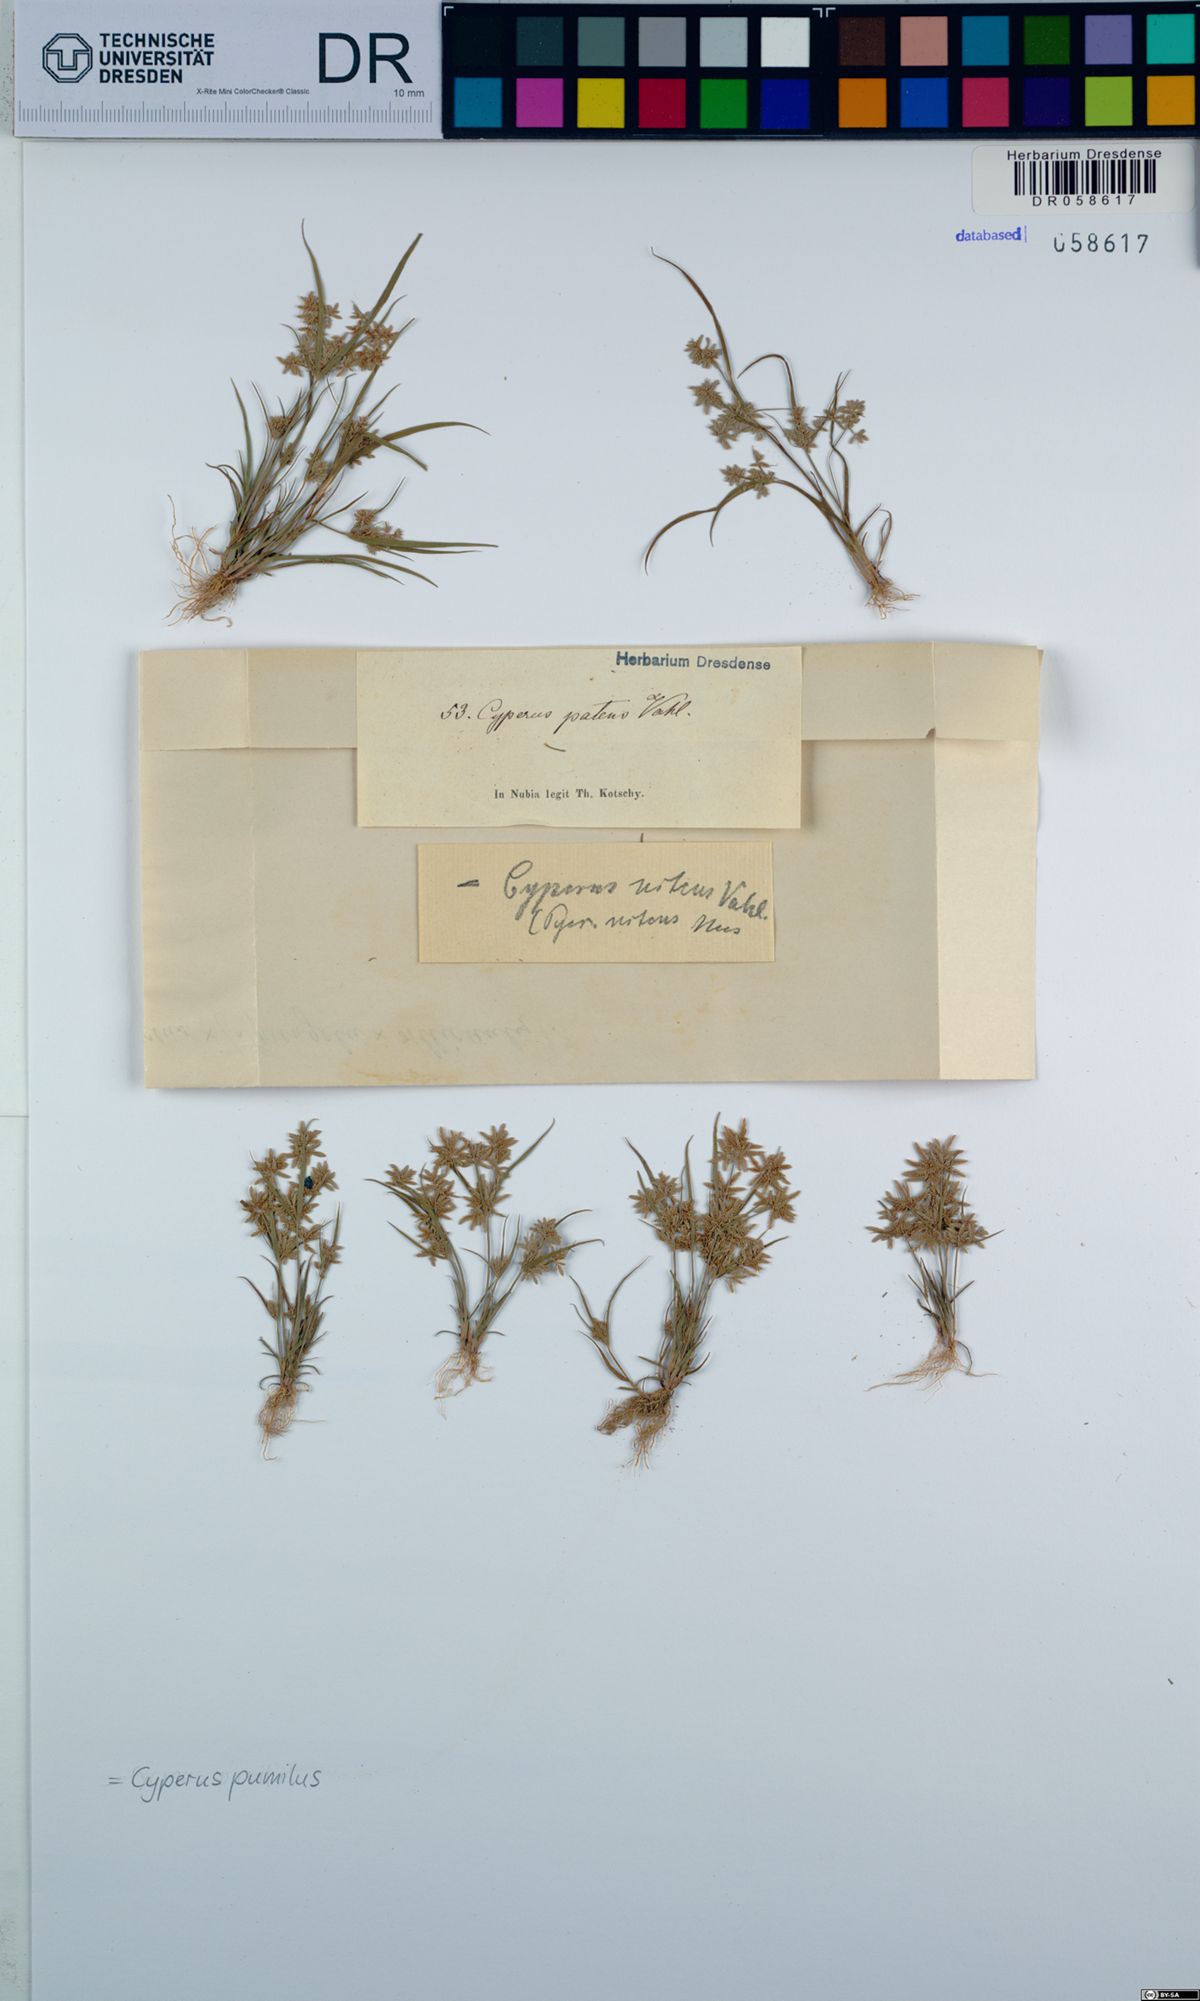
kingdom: Plantae
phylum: Tracheophyta
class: Liliopsida
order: Poales
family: Cyperaceae
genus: Cyperus
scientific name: Cyperus pumilus
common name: Low flatsedge
